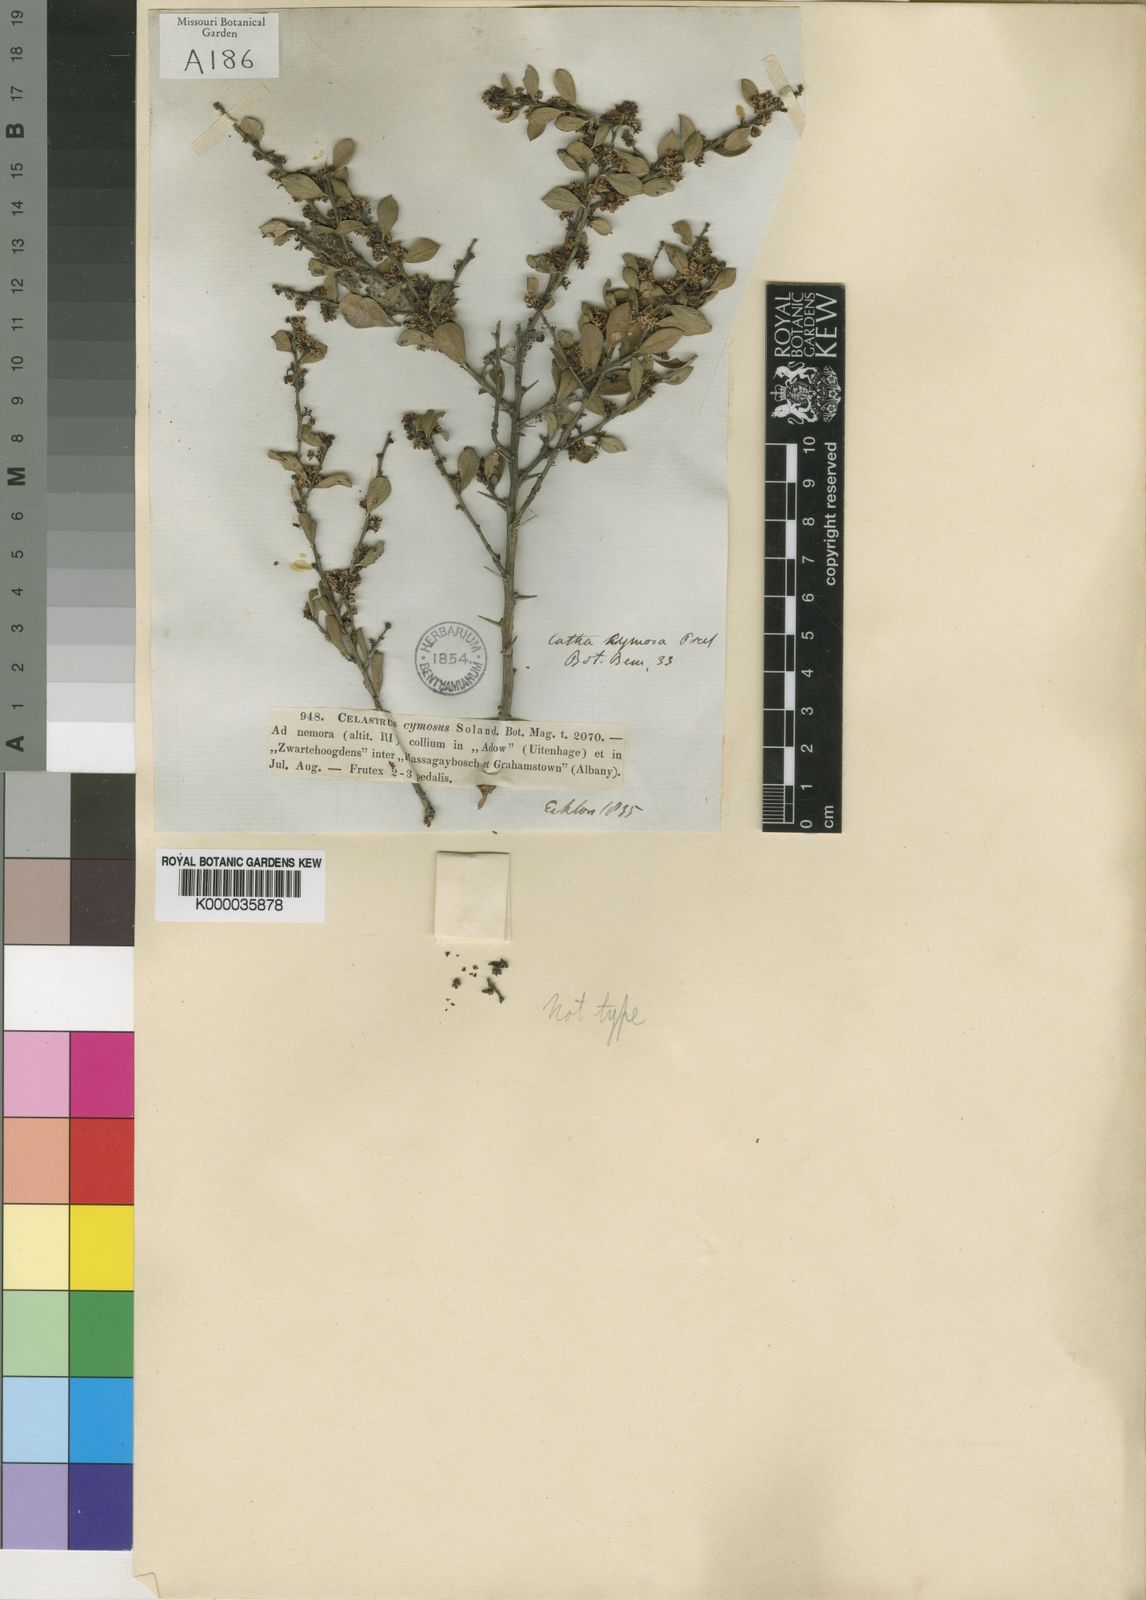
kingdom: Plantae
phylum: Tracheophyta
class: Magnoliopsida
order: Celastrales
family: Celastraceae
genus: Gymnosporia
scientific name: Gymnosporia heterophylla
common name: Angle-stem spikethorn
